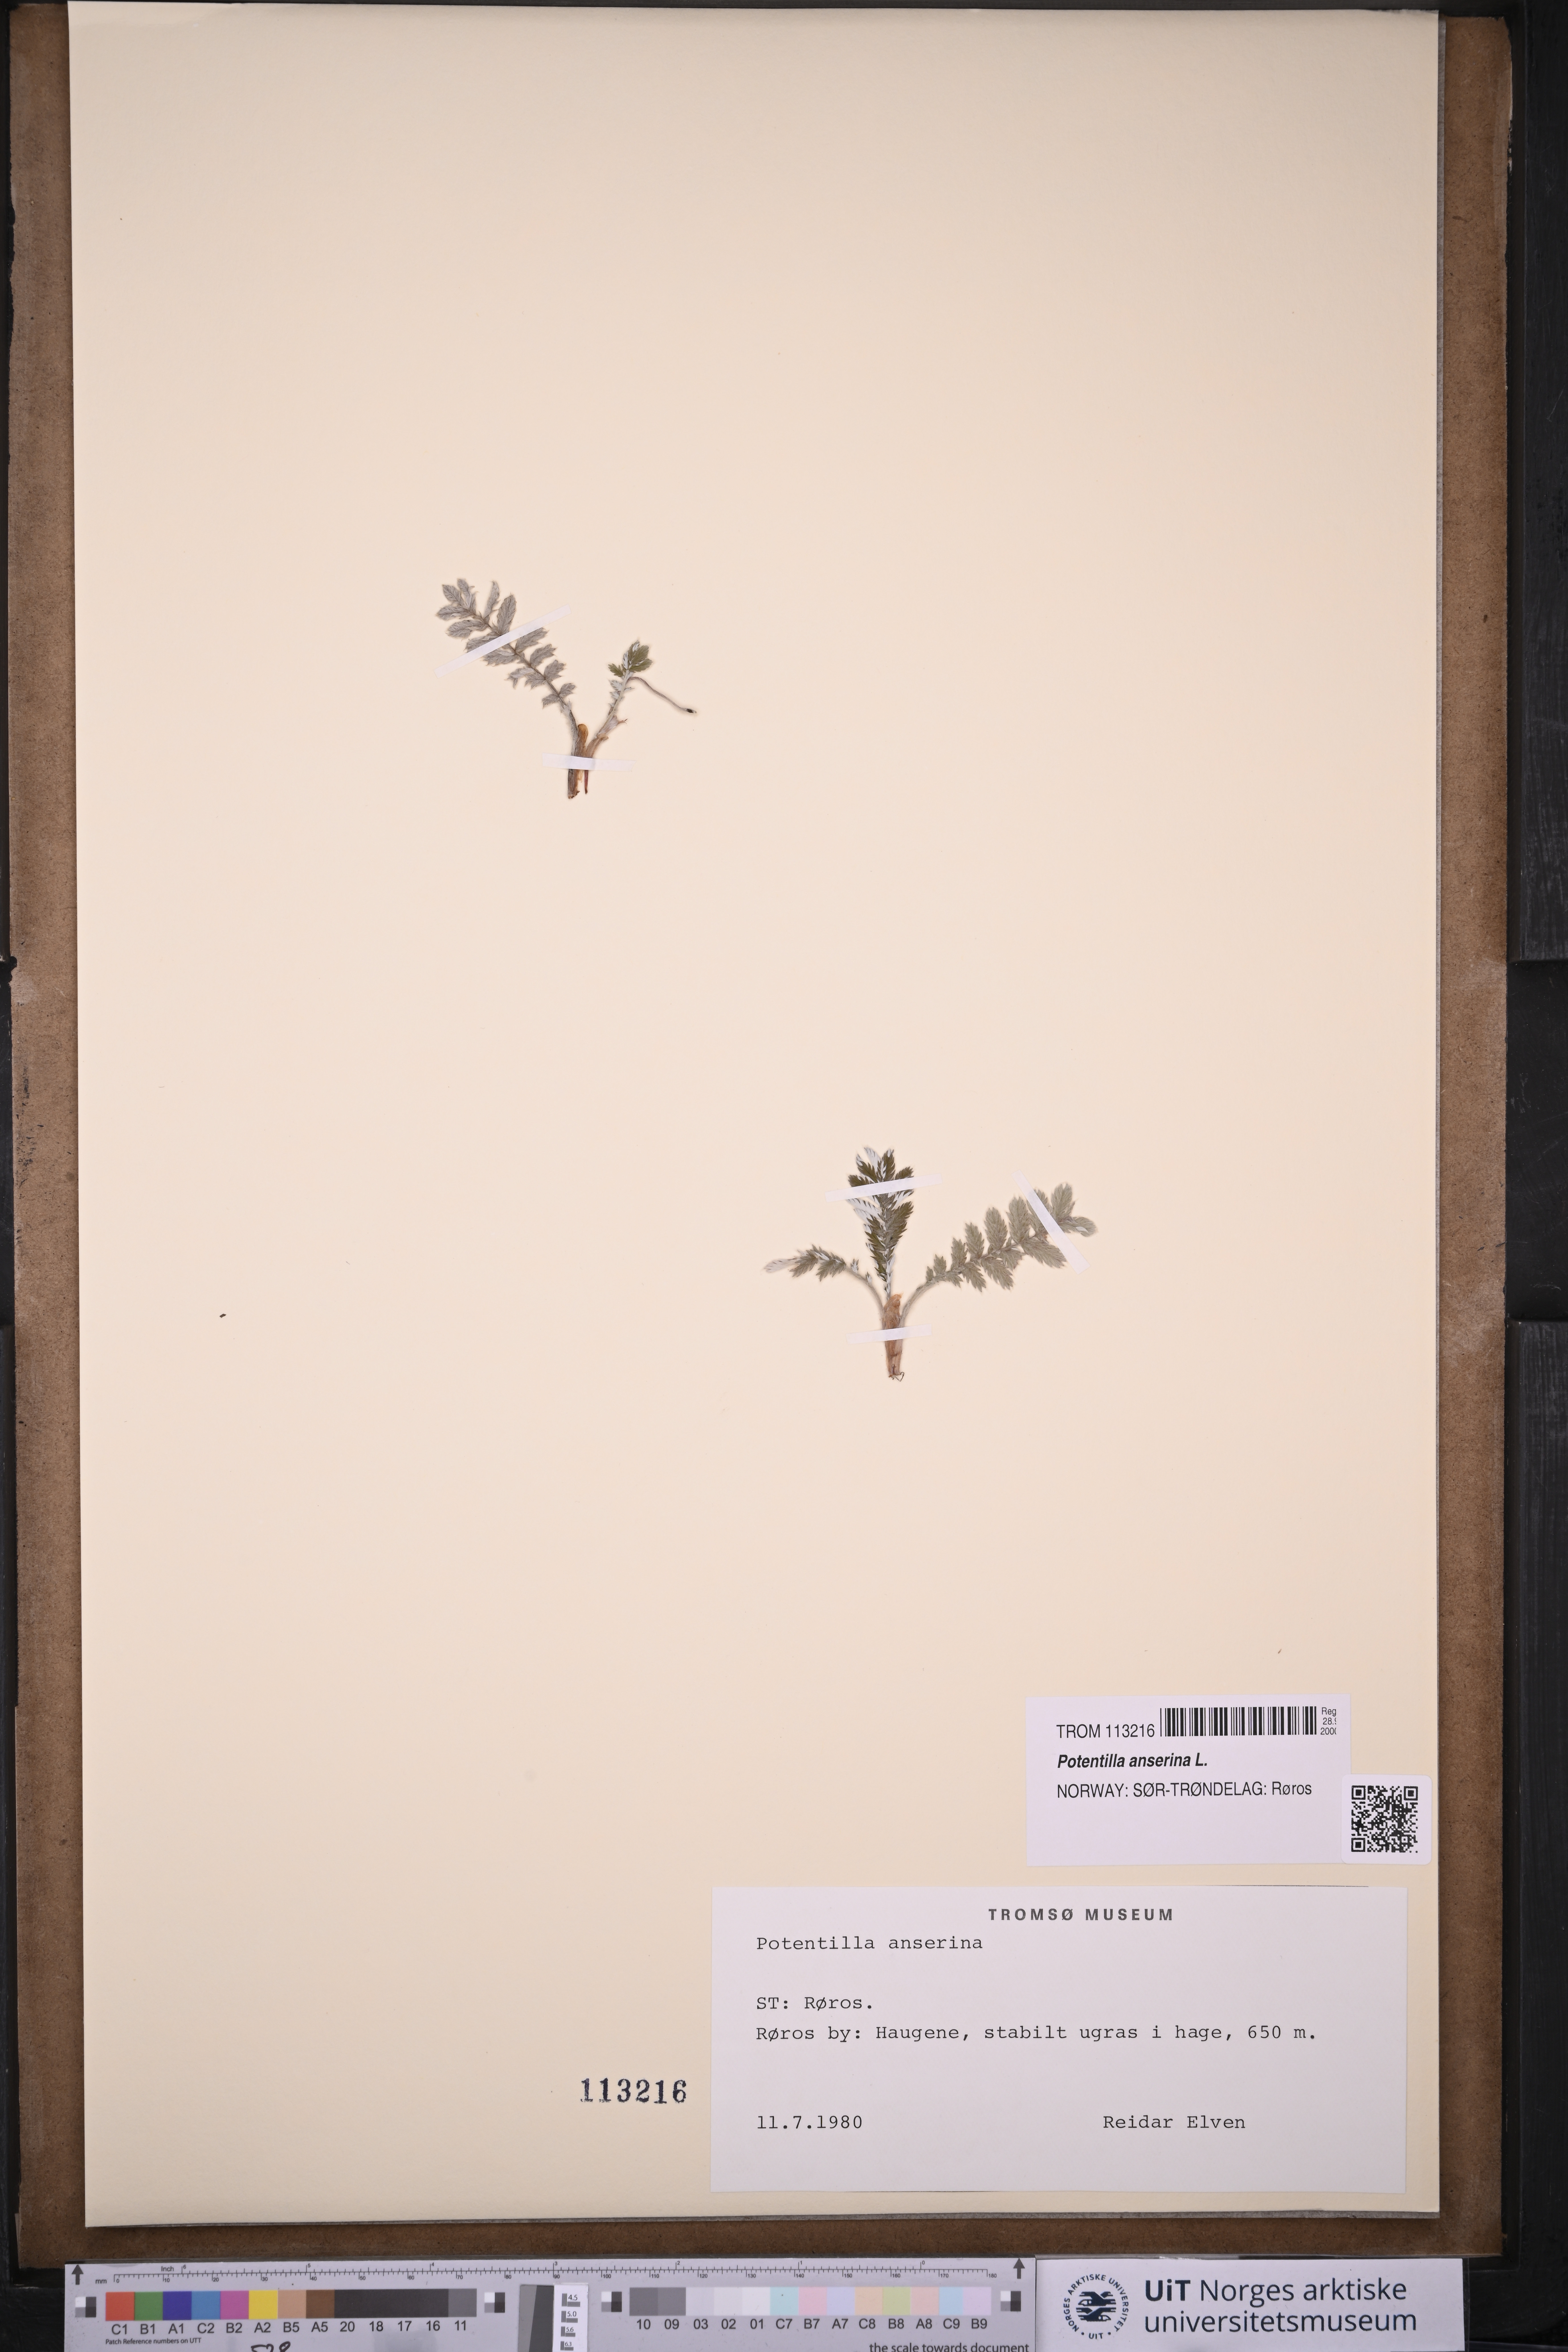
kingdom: Plantae
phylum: Tracheophyta
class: Magnoliopsida
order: Rosales
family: Rosaceae
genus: Argentina
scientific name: Argentina anserina
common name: Common silverweed
